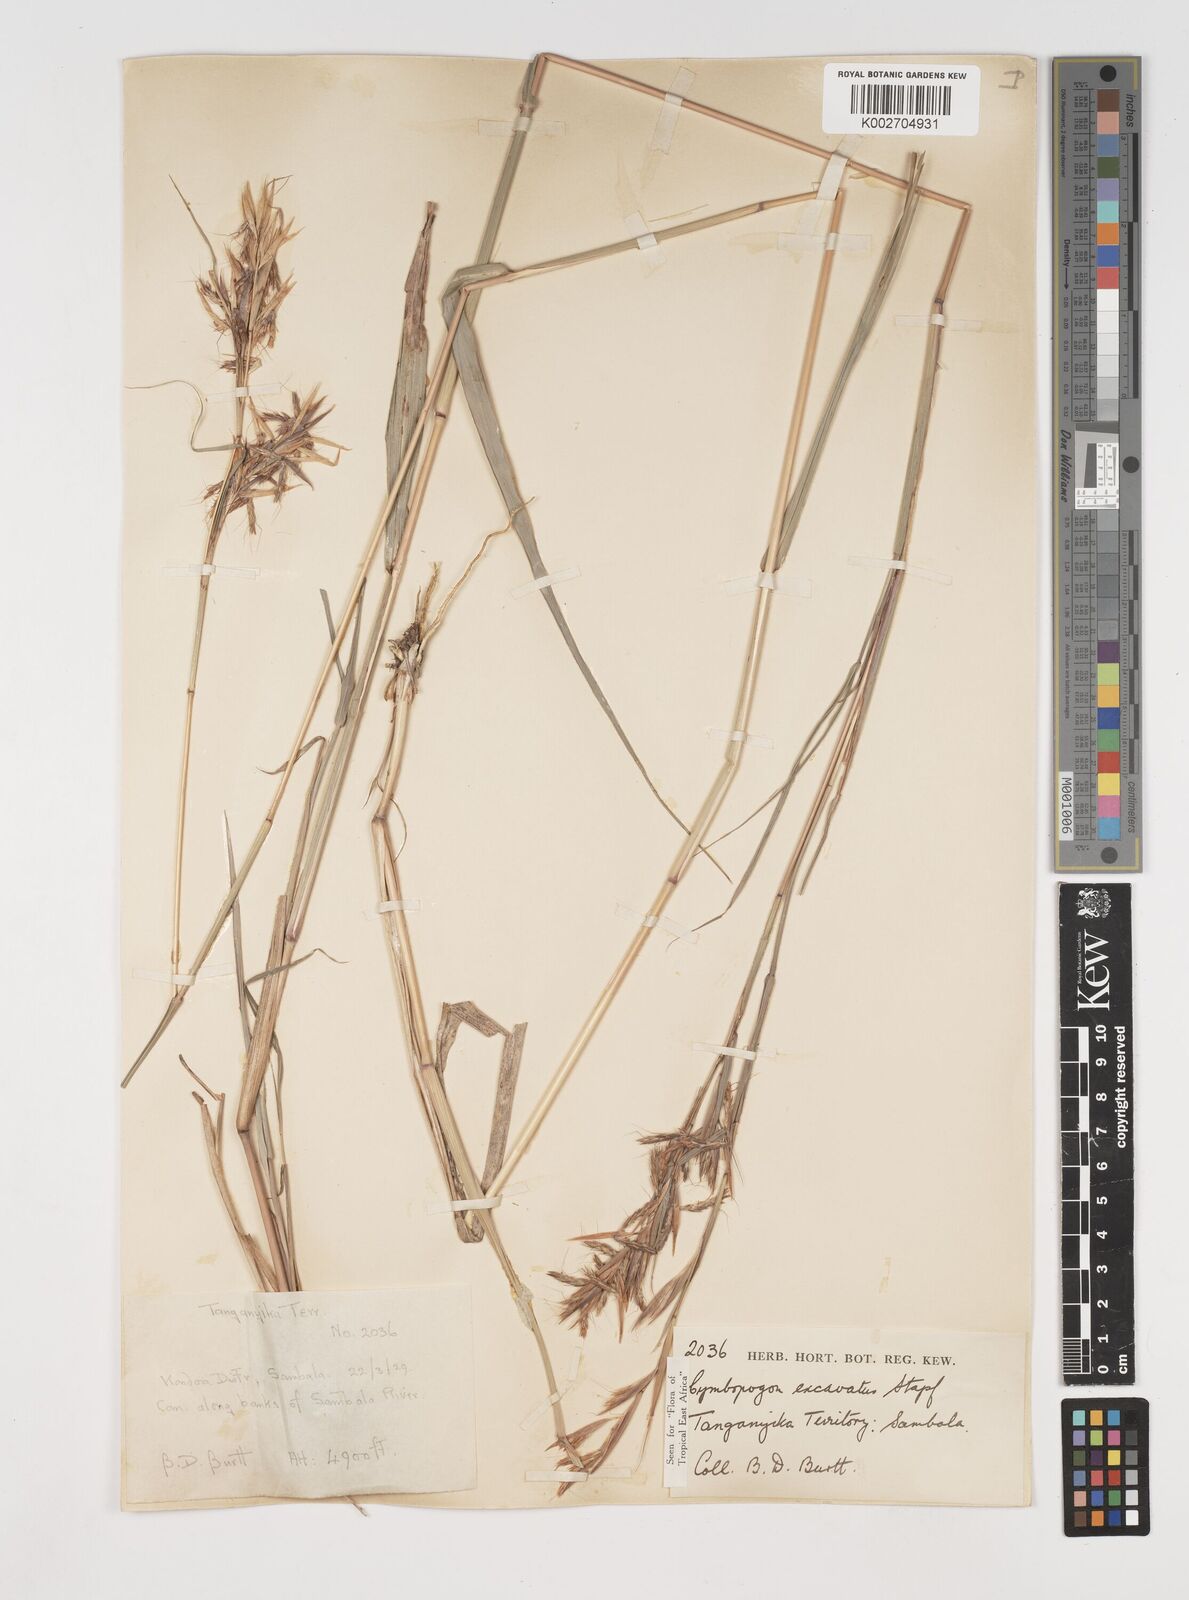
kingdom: Plantae
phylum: Tracheophyta
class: Liliopsida
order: Poales
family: Poaceae
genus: Cymbopogon
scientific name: Cymbopogon caesius
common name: Kachi grass
